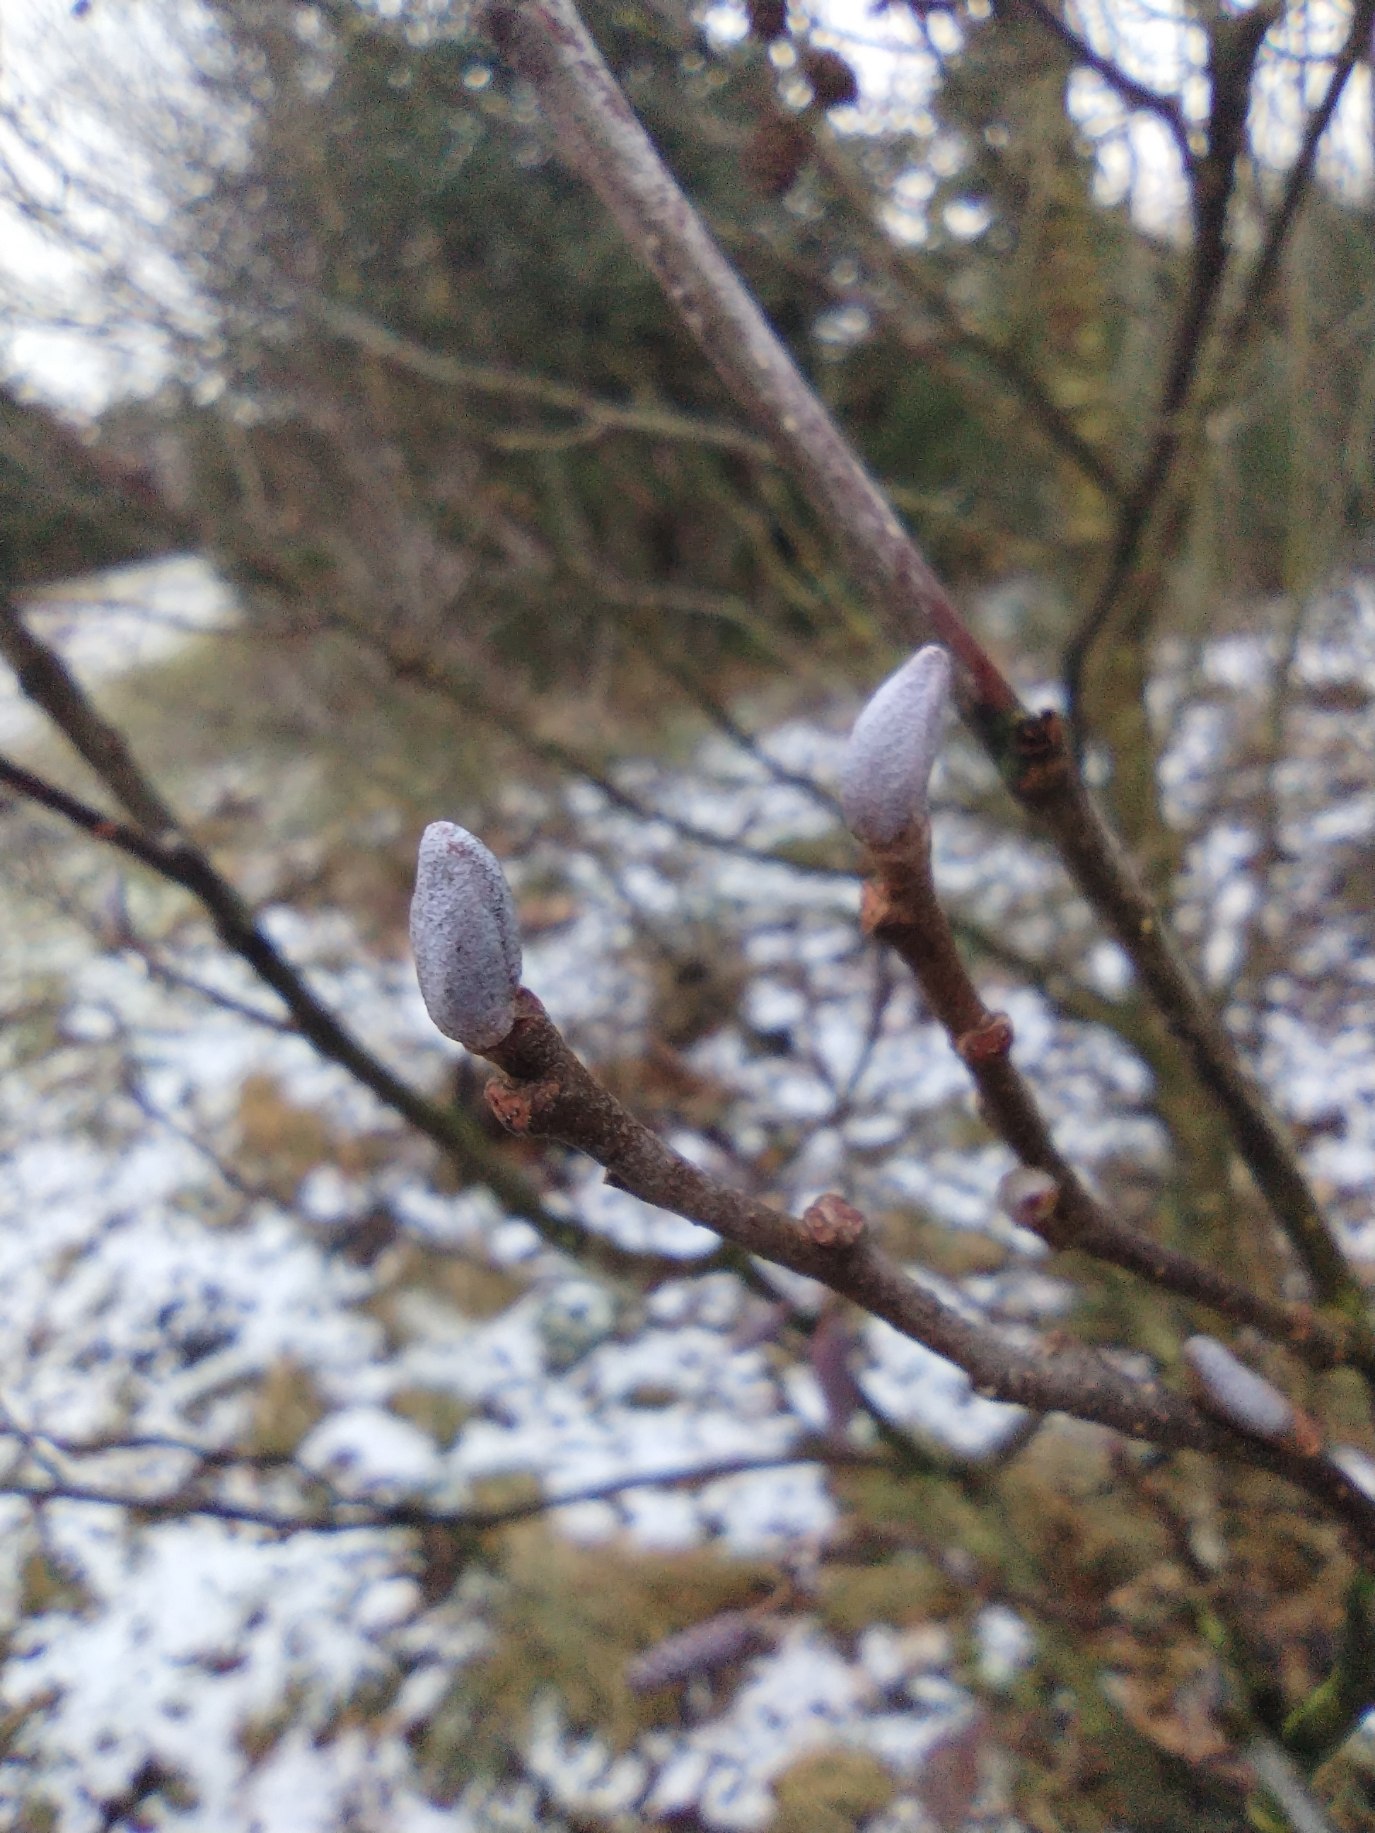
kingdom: Plantae
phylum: Tracheophyta
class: Magnoliopsida
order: Fagales
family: Betulaceae
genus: Alnus
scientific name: Alnus glutinosa
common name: Rød-el
